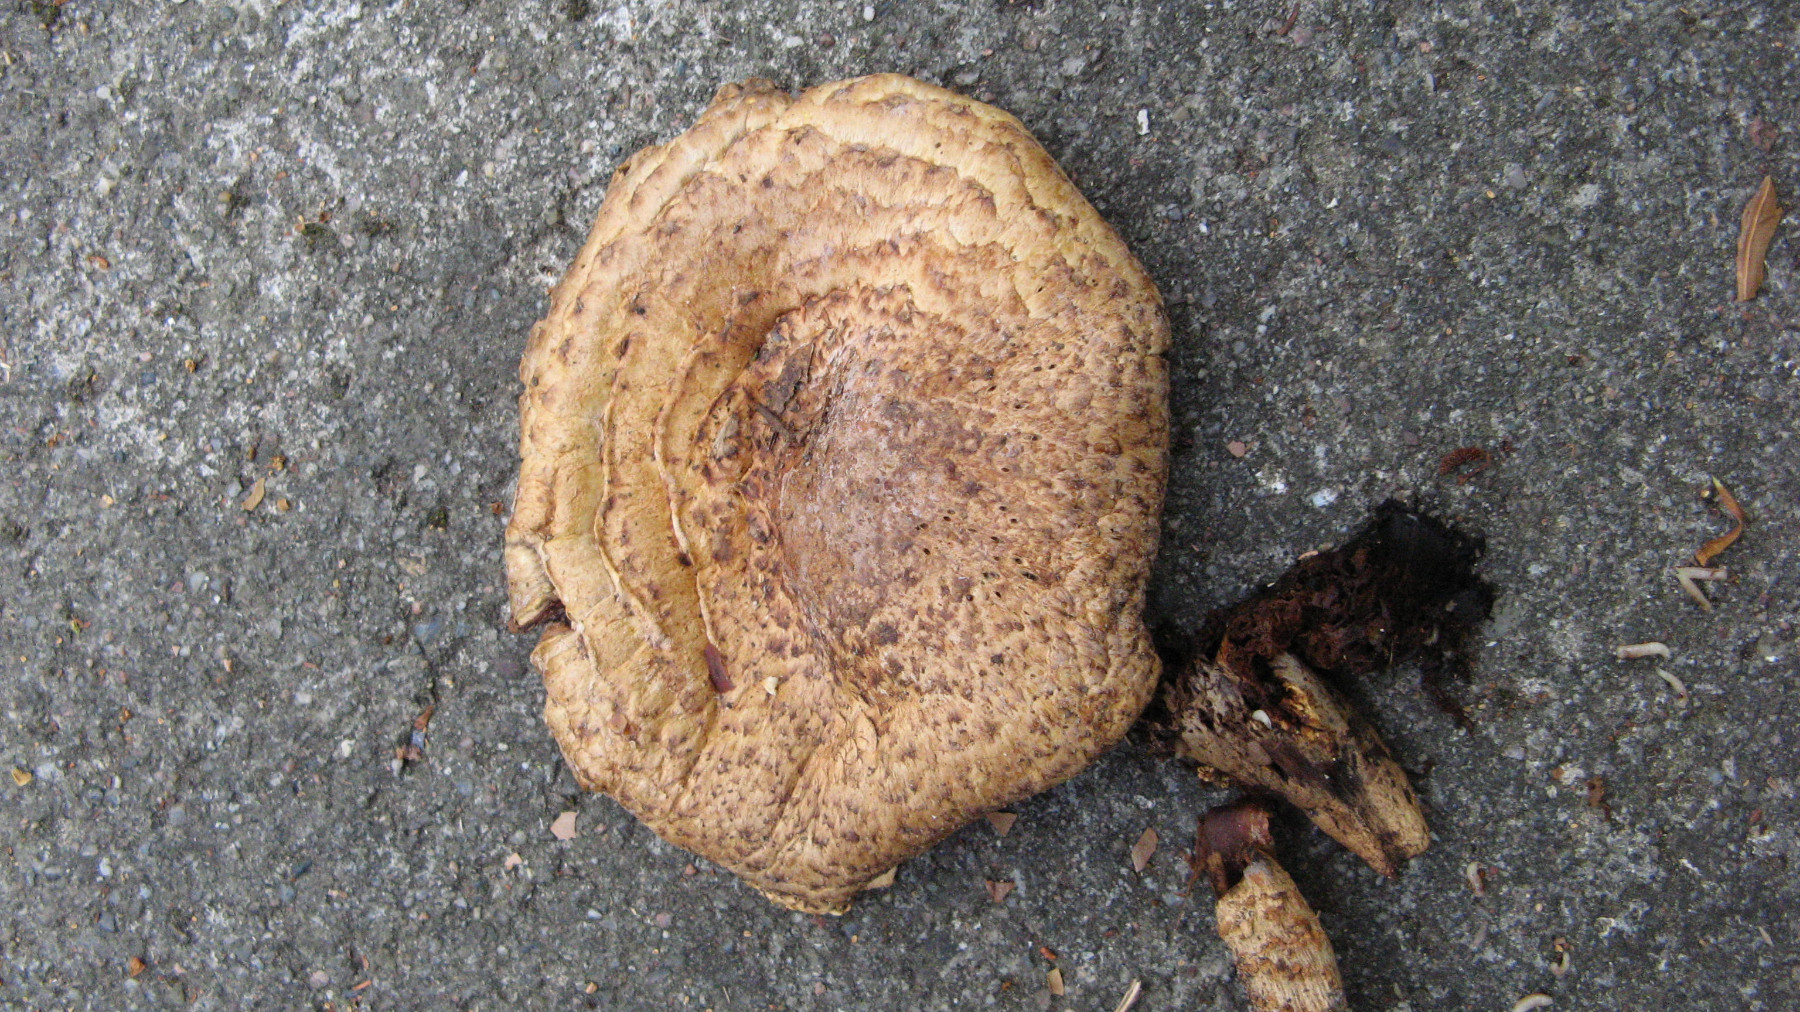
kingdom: Fungi
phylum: Basidiomycota
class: Agaricomycetes
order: Agaricales
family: Agaricaceae
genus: Agaricus
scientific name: Agaricus xanthodermus
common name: karbol-champignon
